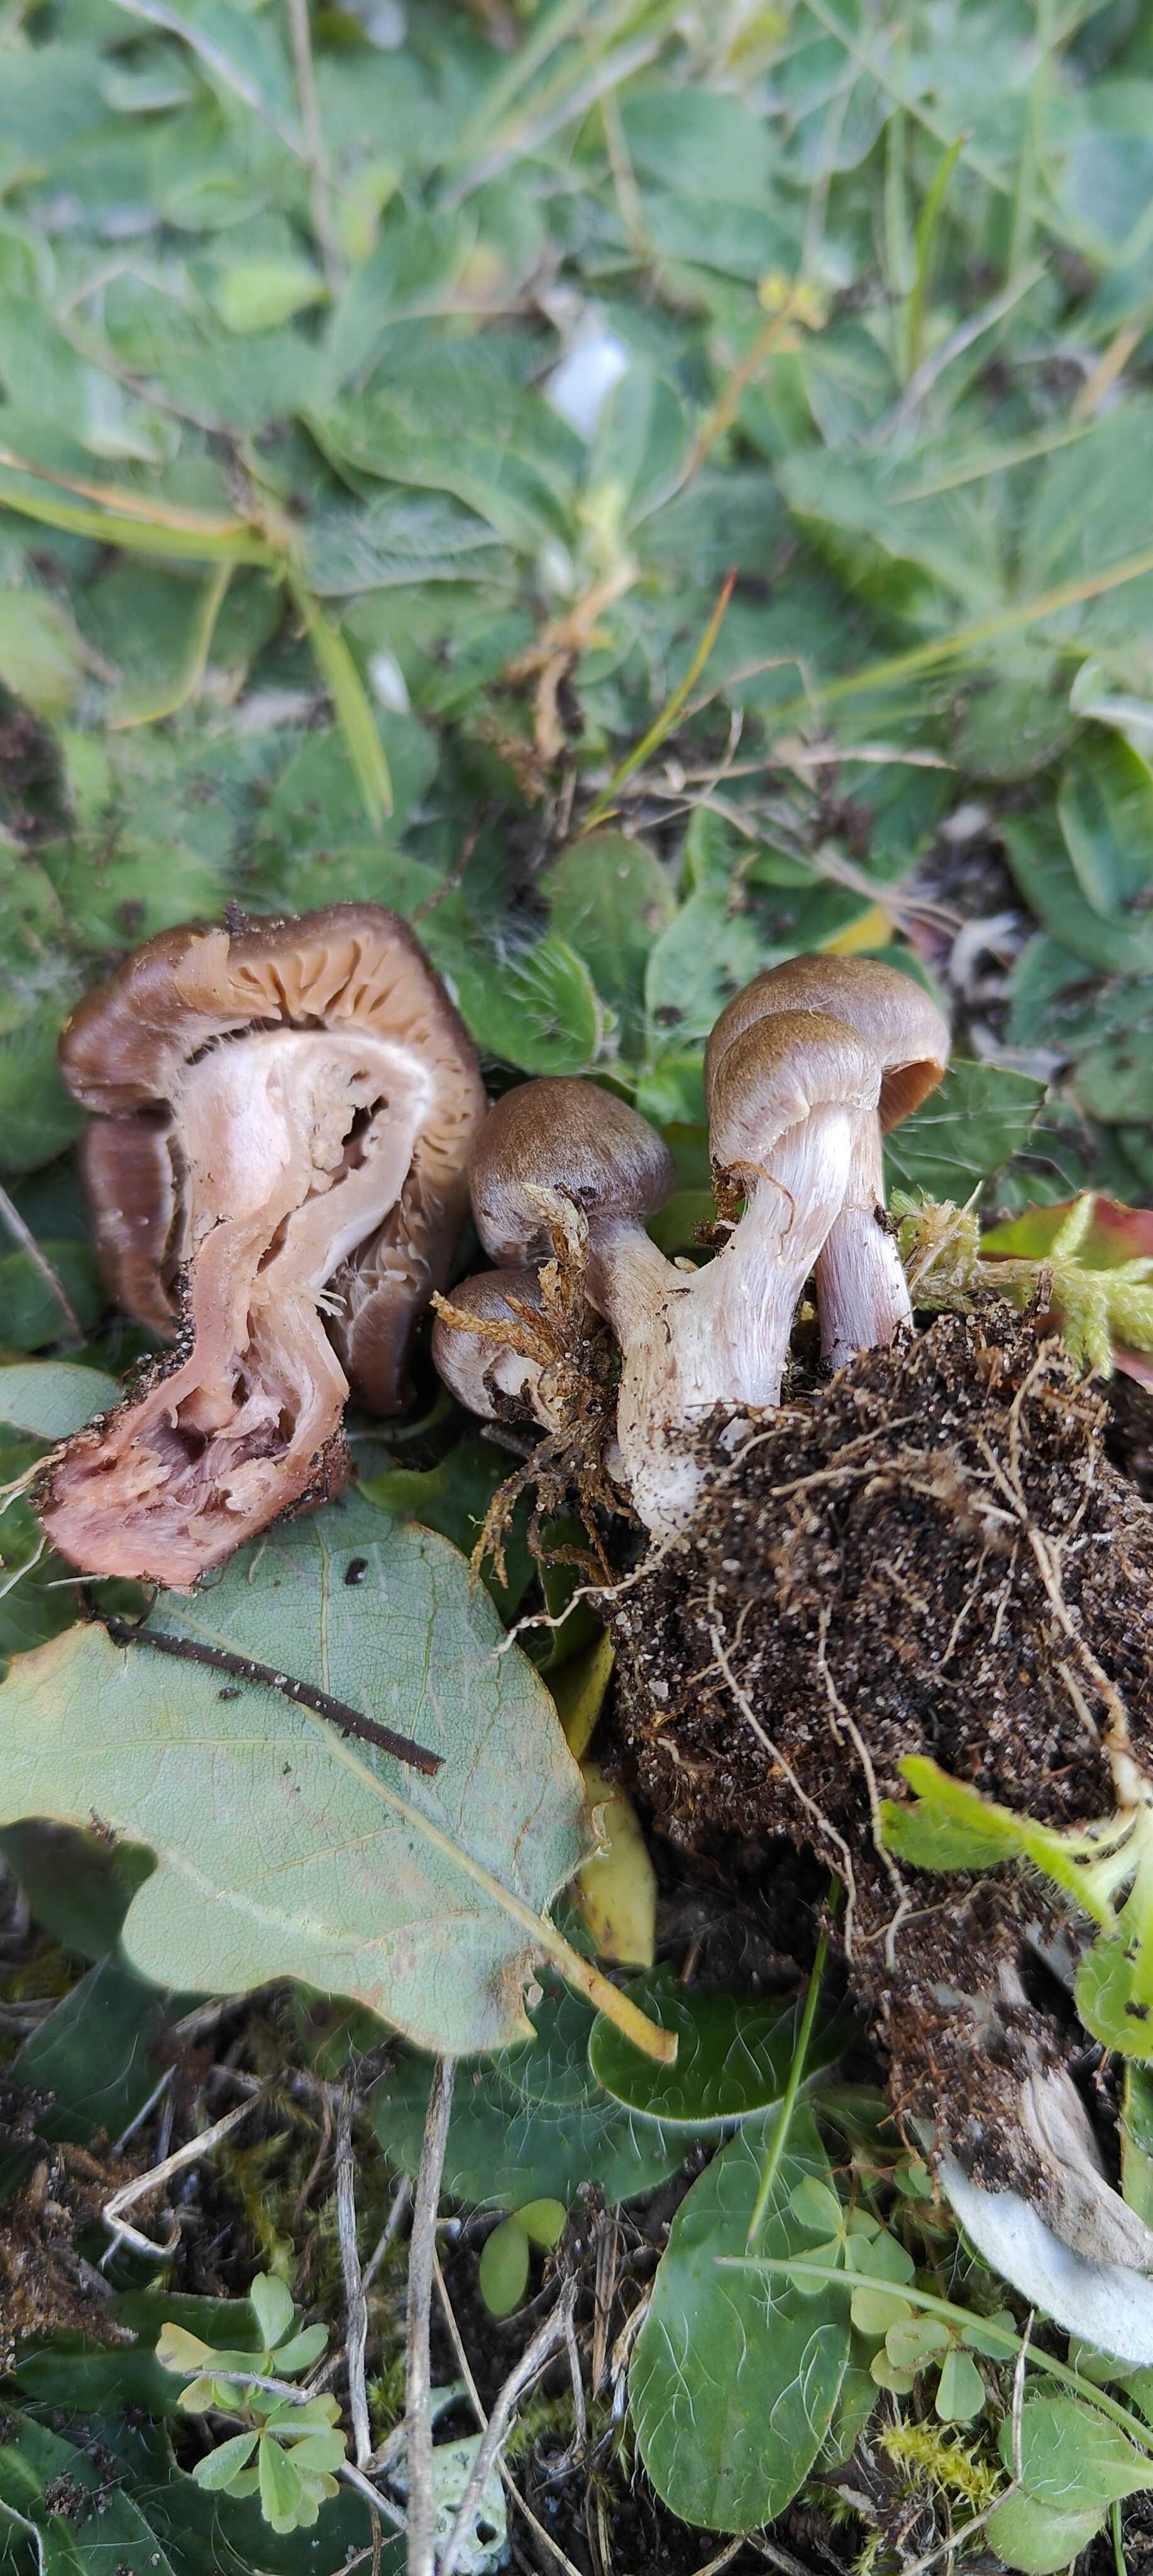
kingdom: Fungi
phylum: Basidiomycota
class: Agaricomycetes
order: Agaricales
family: Cortinariaceae
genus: Cortinarius
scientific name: Cortinarius
